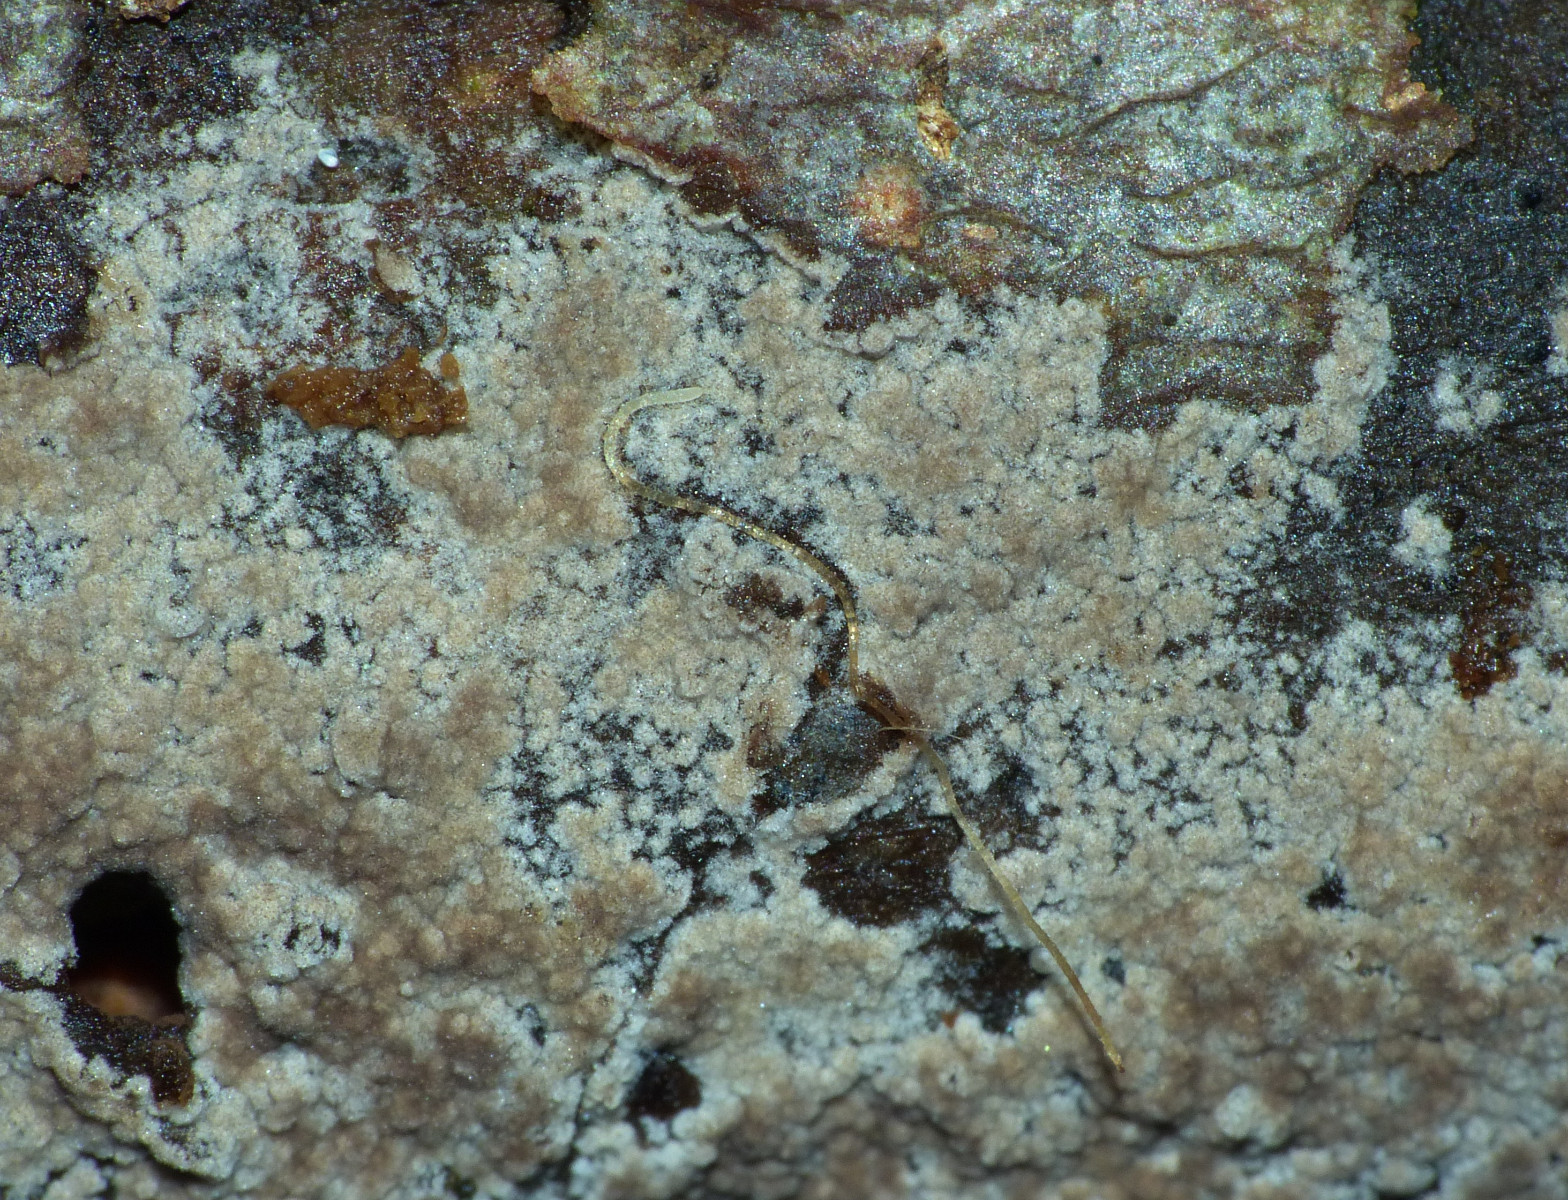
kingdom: Fungi
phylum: Basidiomycota
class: Agaricomycetes
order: Thelephorales
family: Thelephoraceae
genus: Tomentella
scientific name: Tomentella
